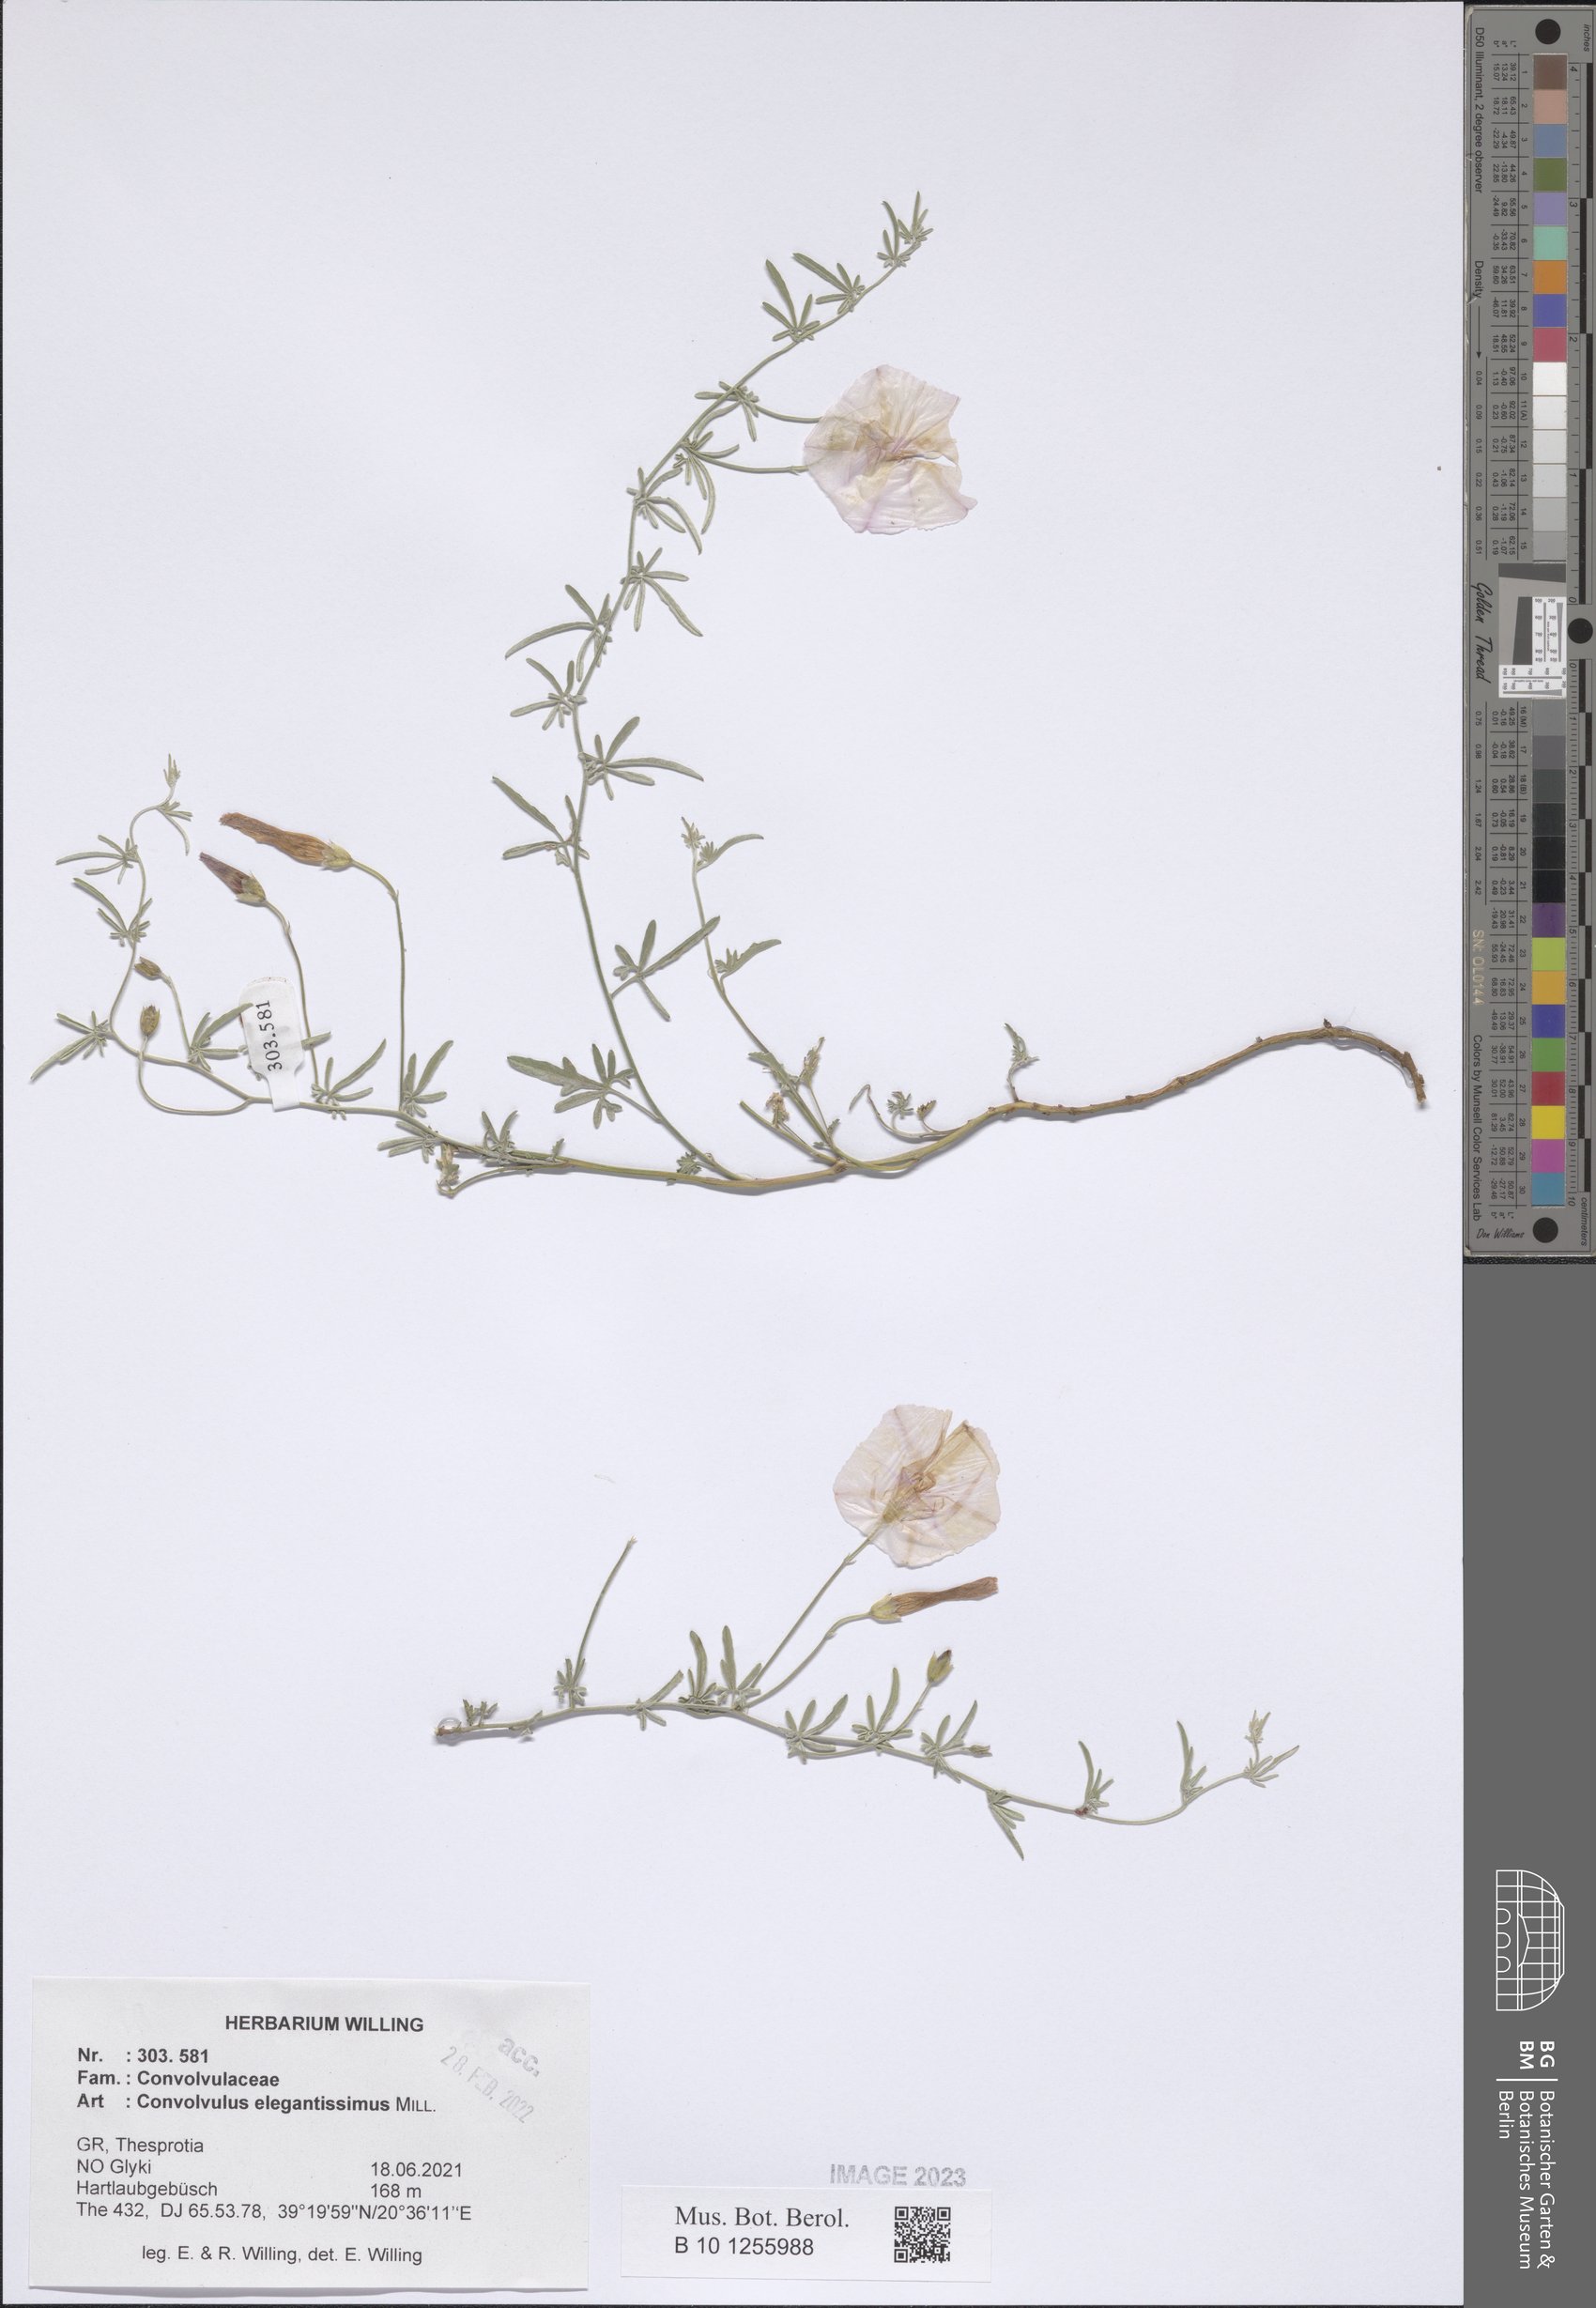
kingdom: Plantae
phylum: Tracheophyta
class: Magnoliopsida
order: Solanales
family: Convolvulaceae
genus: Convolvulus
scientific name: Convolvulus elegantissimus
